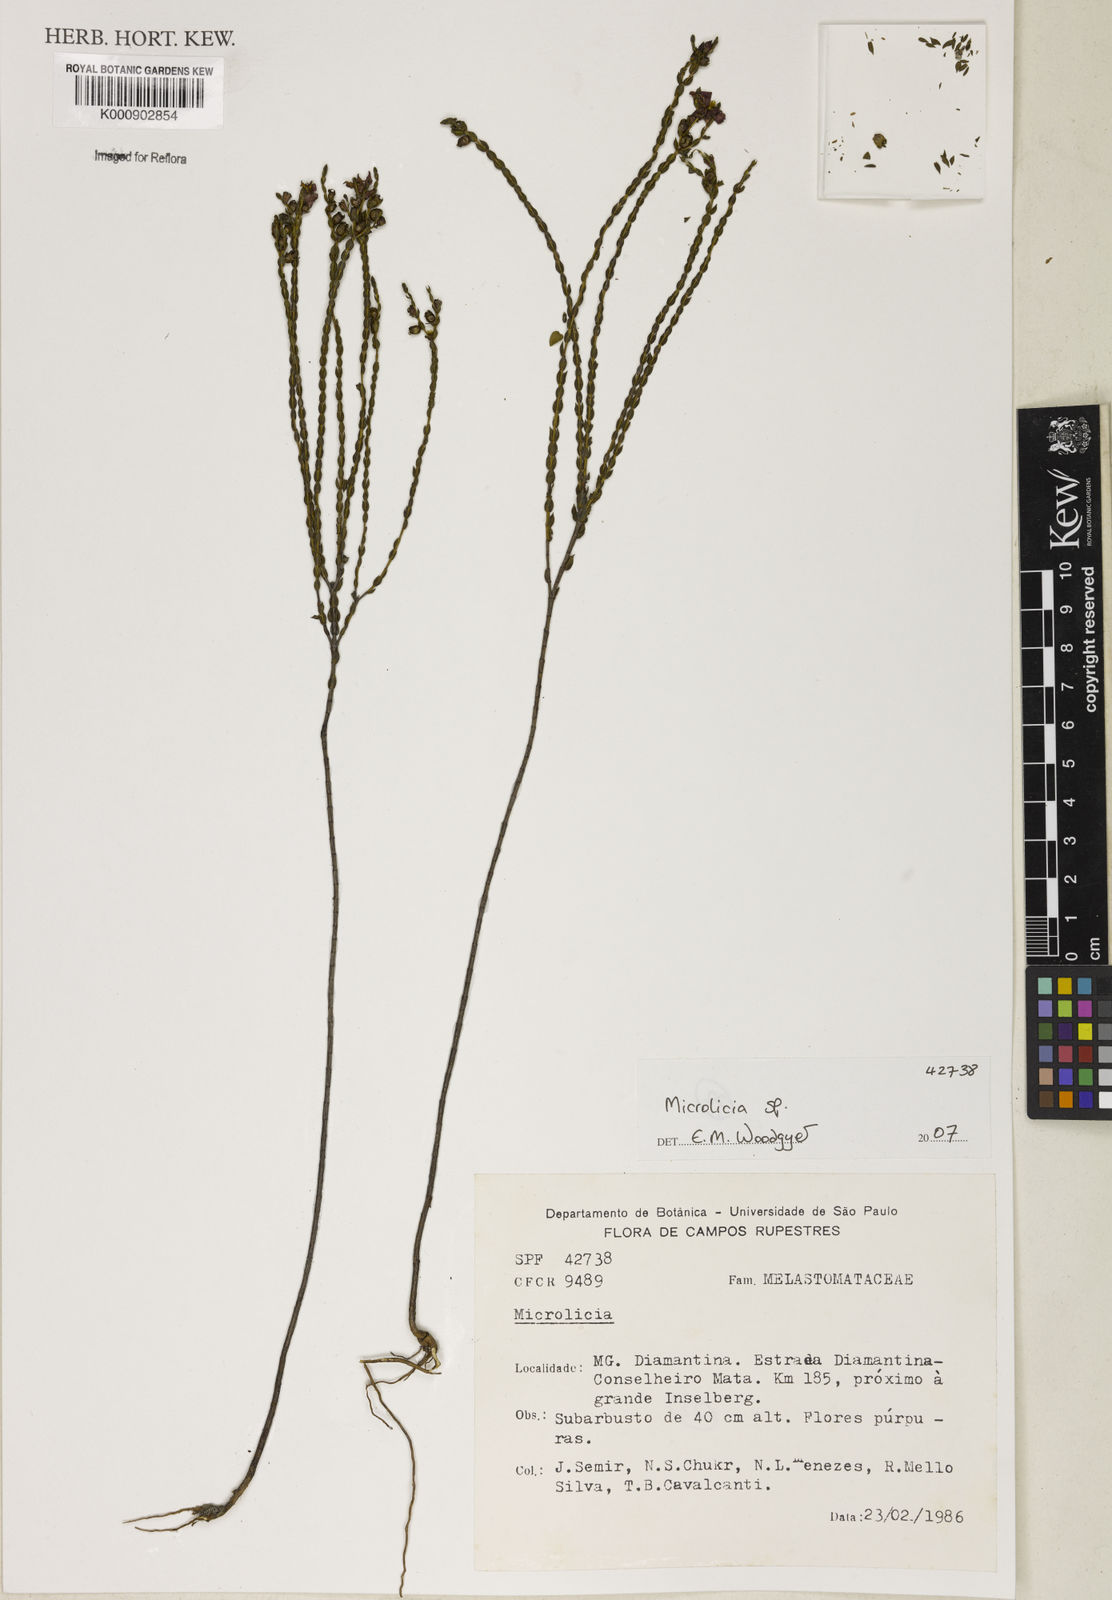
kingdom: Plantae
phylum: Tracheophyta
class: Magnoliopsida
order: Myrtales
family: Melastomataceae
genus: Microlicia
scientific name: Microlicia
